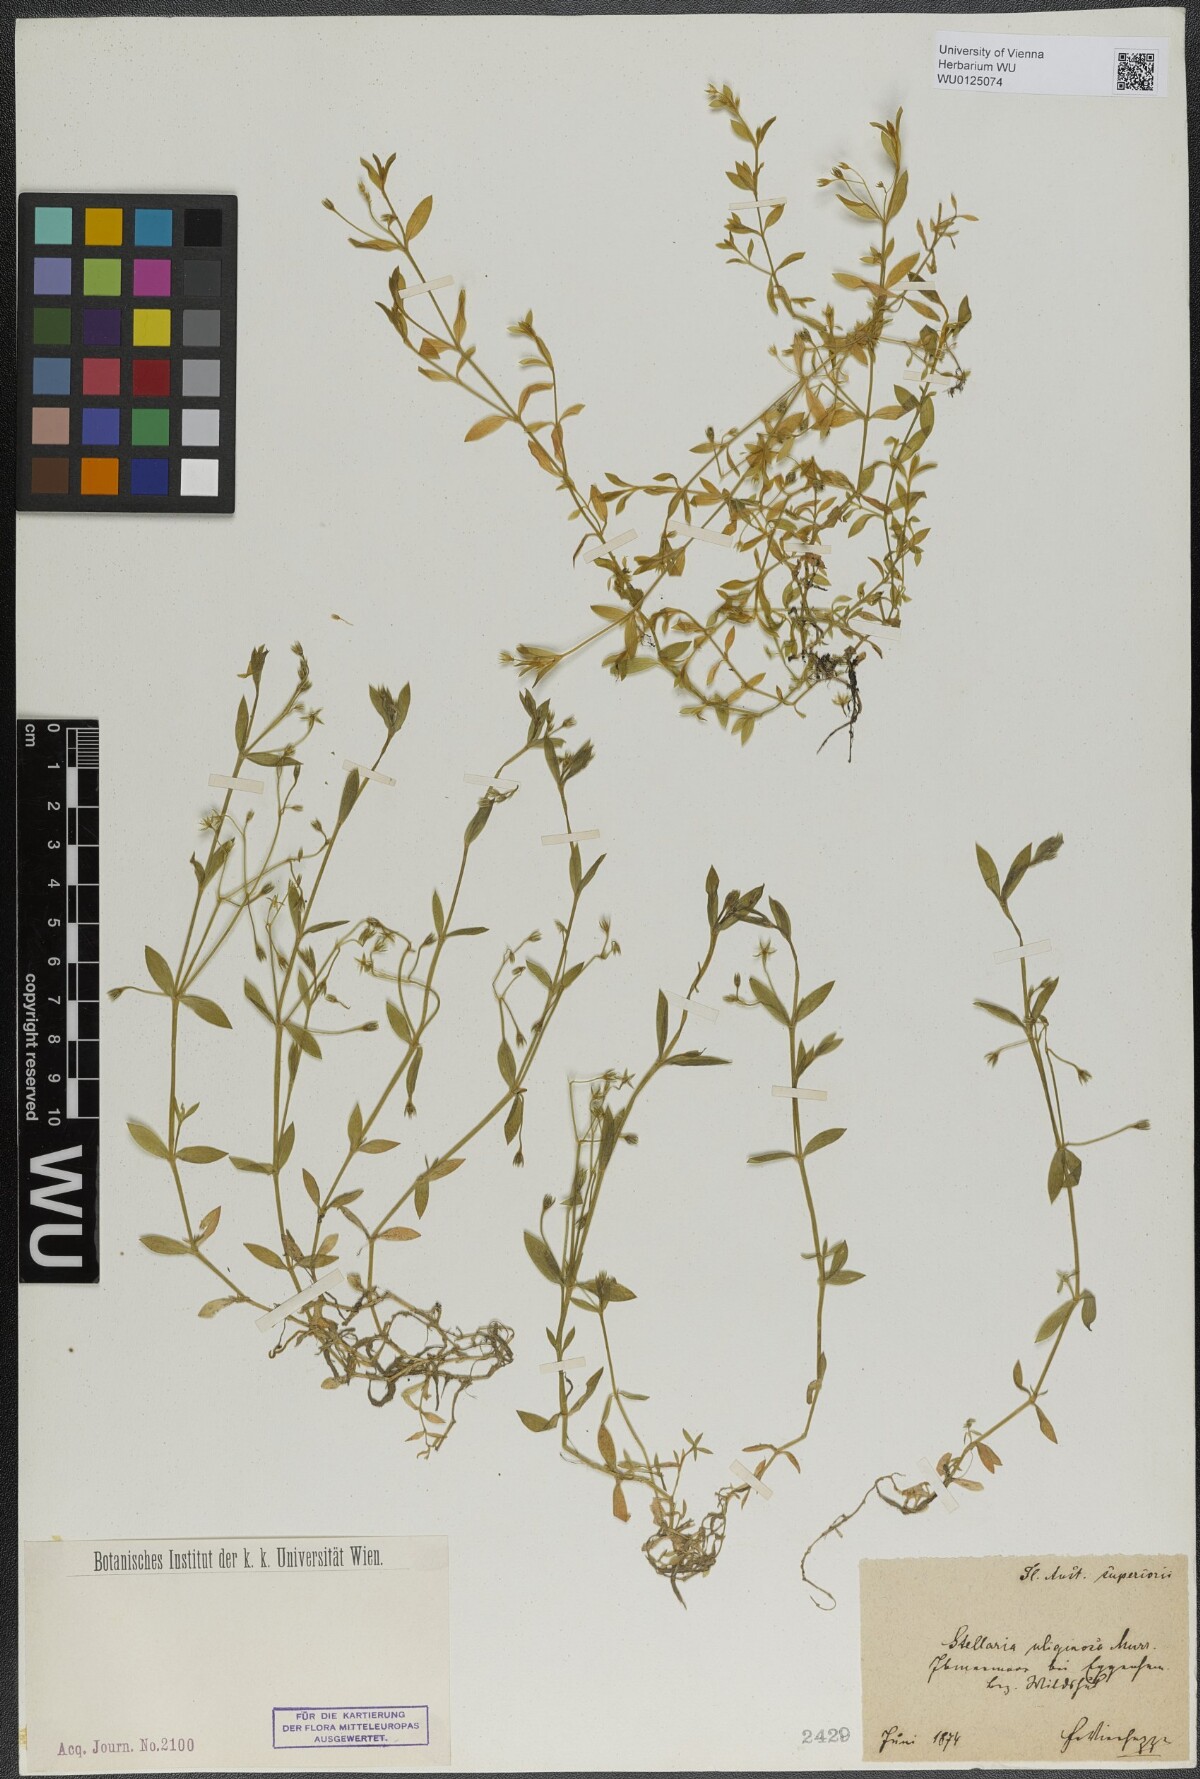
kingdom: Plantae
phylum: Tracheophyta
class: Magnoliopsida
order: Caryophyllales
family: Caryophyllaceae
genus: Stellaria
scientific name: Stellaria alsine
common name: Bog stitchwort
